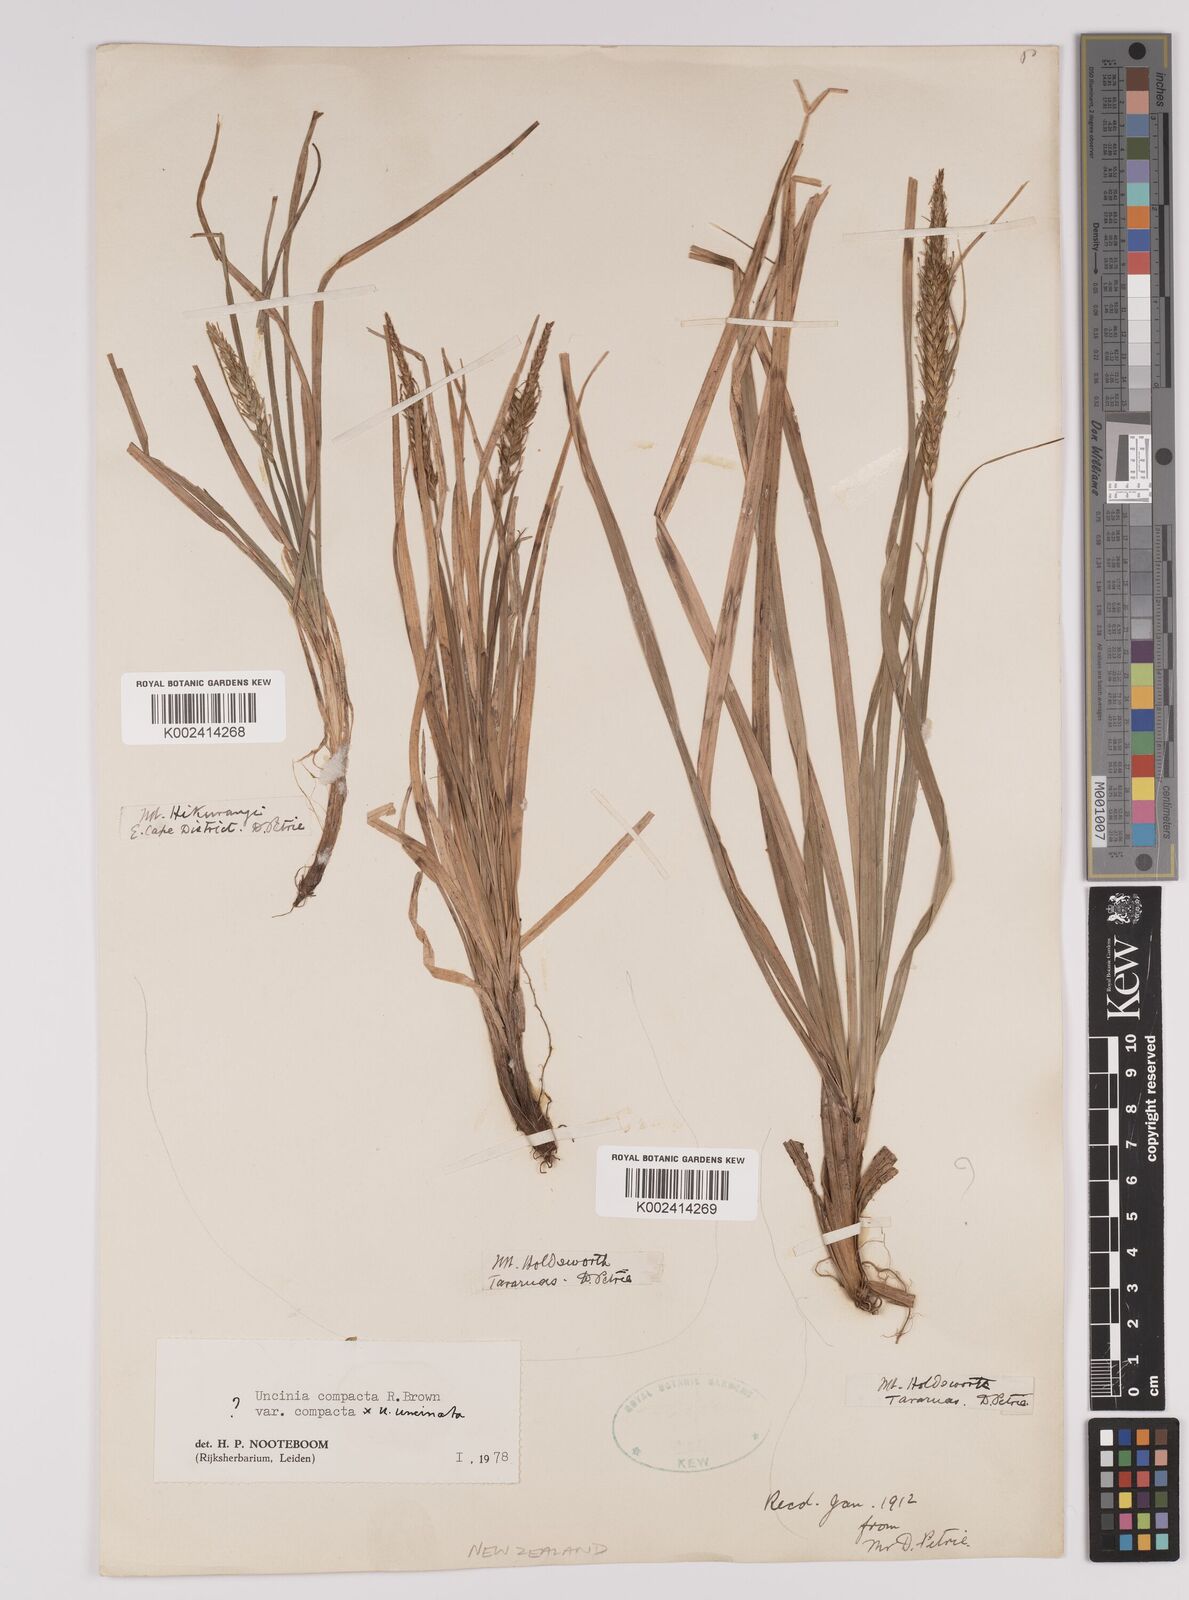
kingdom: Plantae
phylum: Tracheophyta
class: Liliopsida
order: Poales
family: Cyperaceae
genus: Carex
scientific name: Carex zotovii
